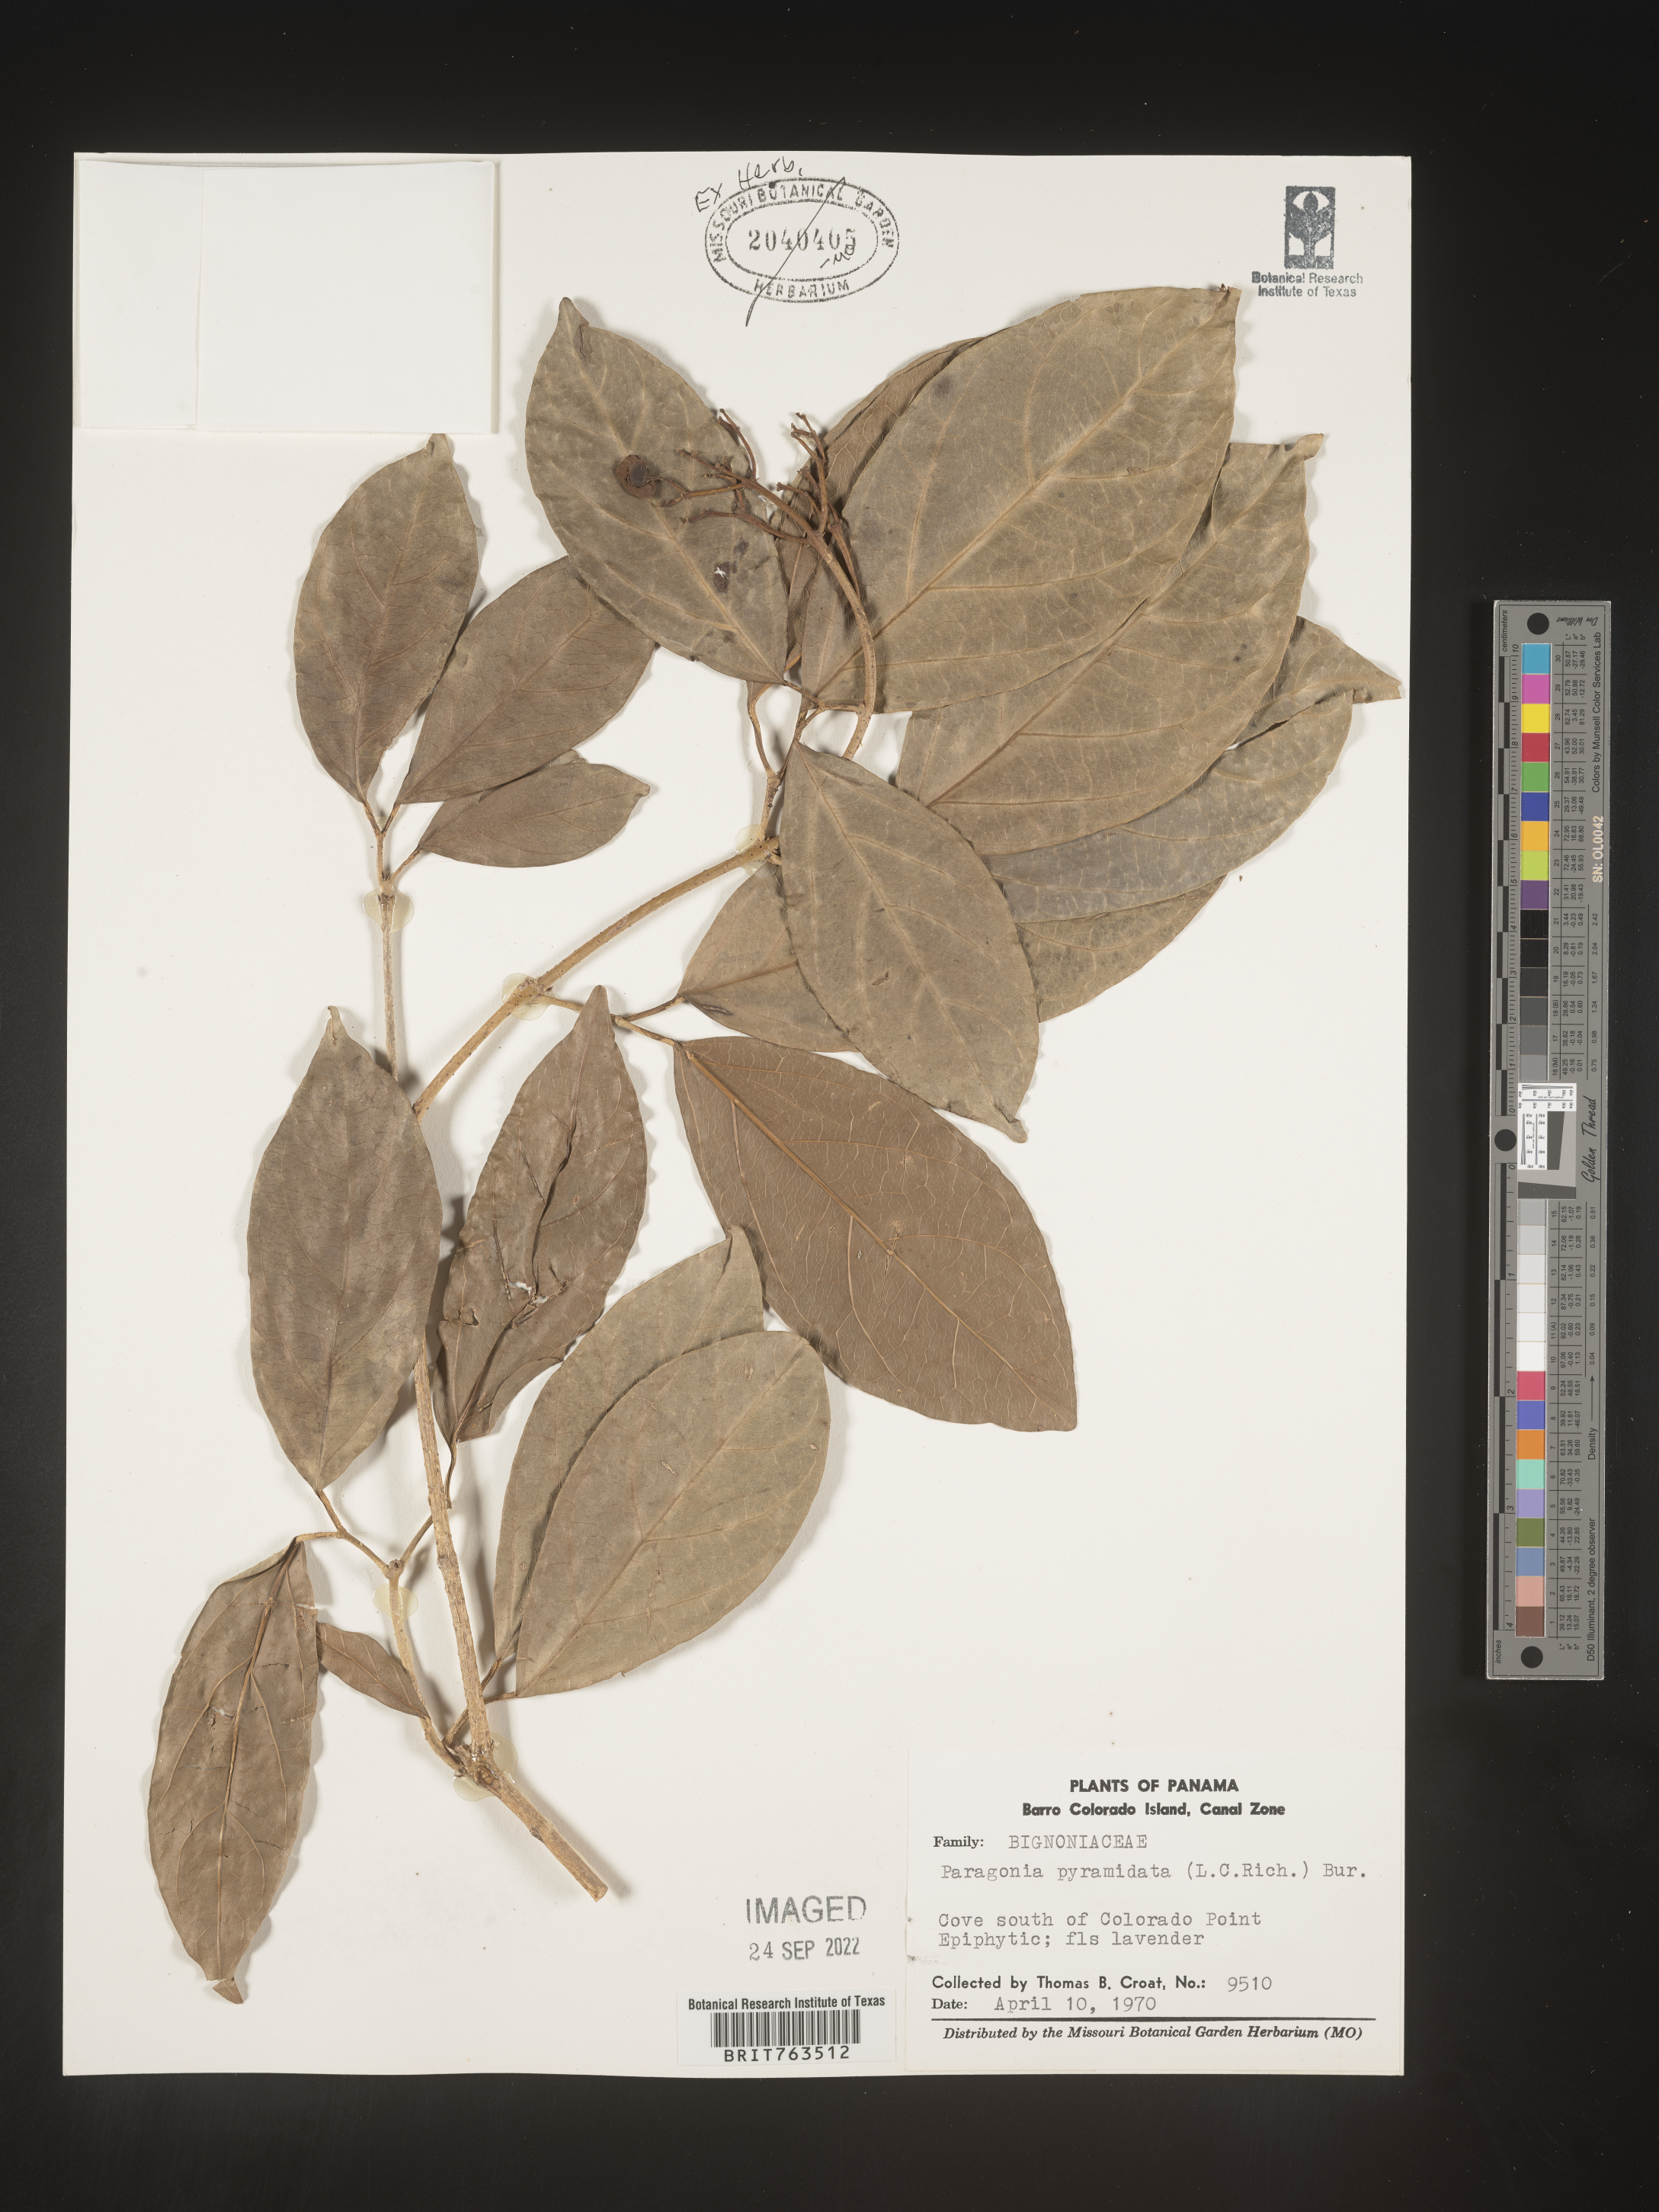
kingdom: Plantae
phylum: Tracheophyta
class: Magnoliopsida
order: Lamiales
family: Bignoniaceae
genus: Paragonia
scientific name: Paragonia
